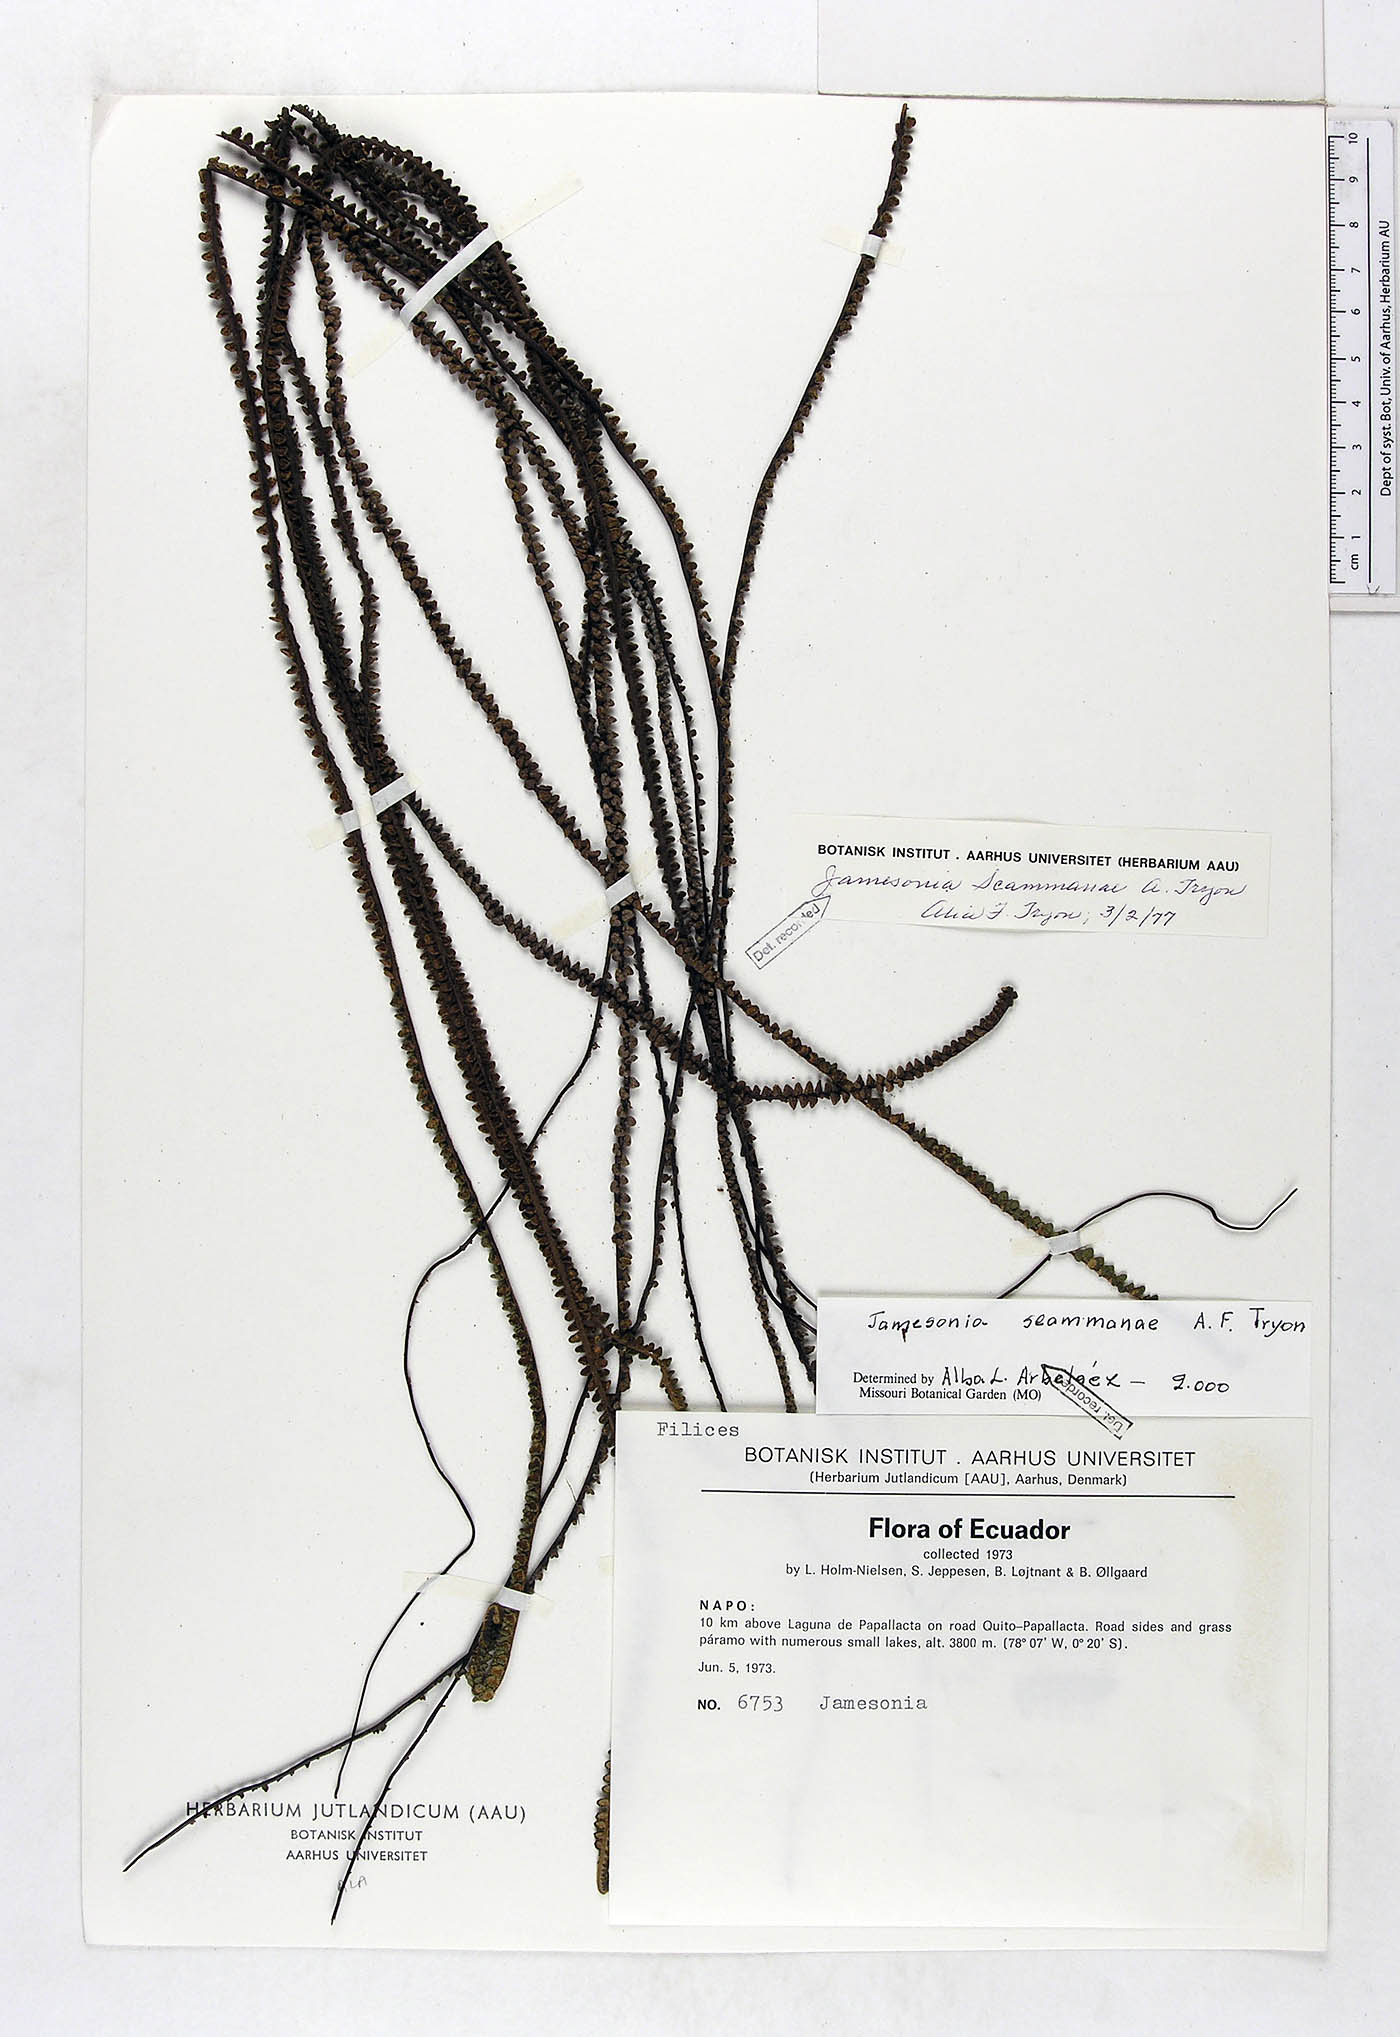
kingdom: Plantae
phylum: Tracheophyta
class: Polypodiopsida
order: Polypodiales
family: Pteridaceae
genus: Jamesonia
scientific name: Jamesonia scammanae
